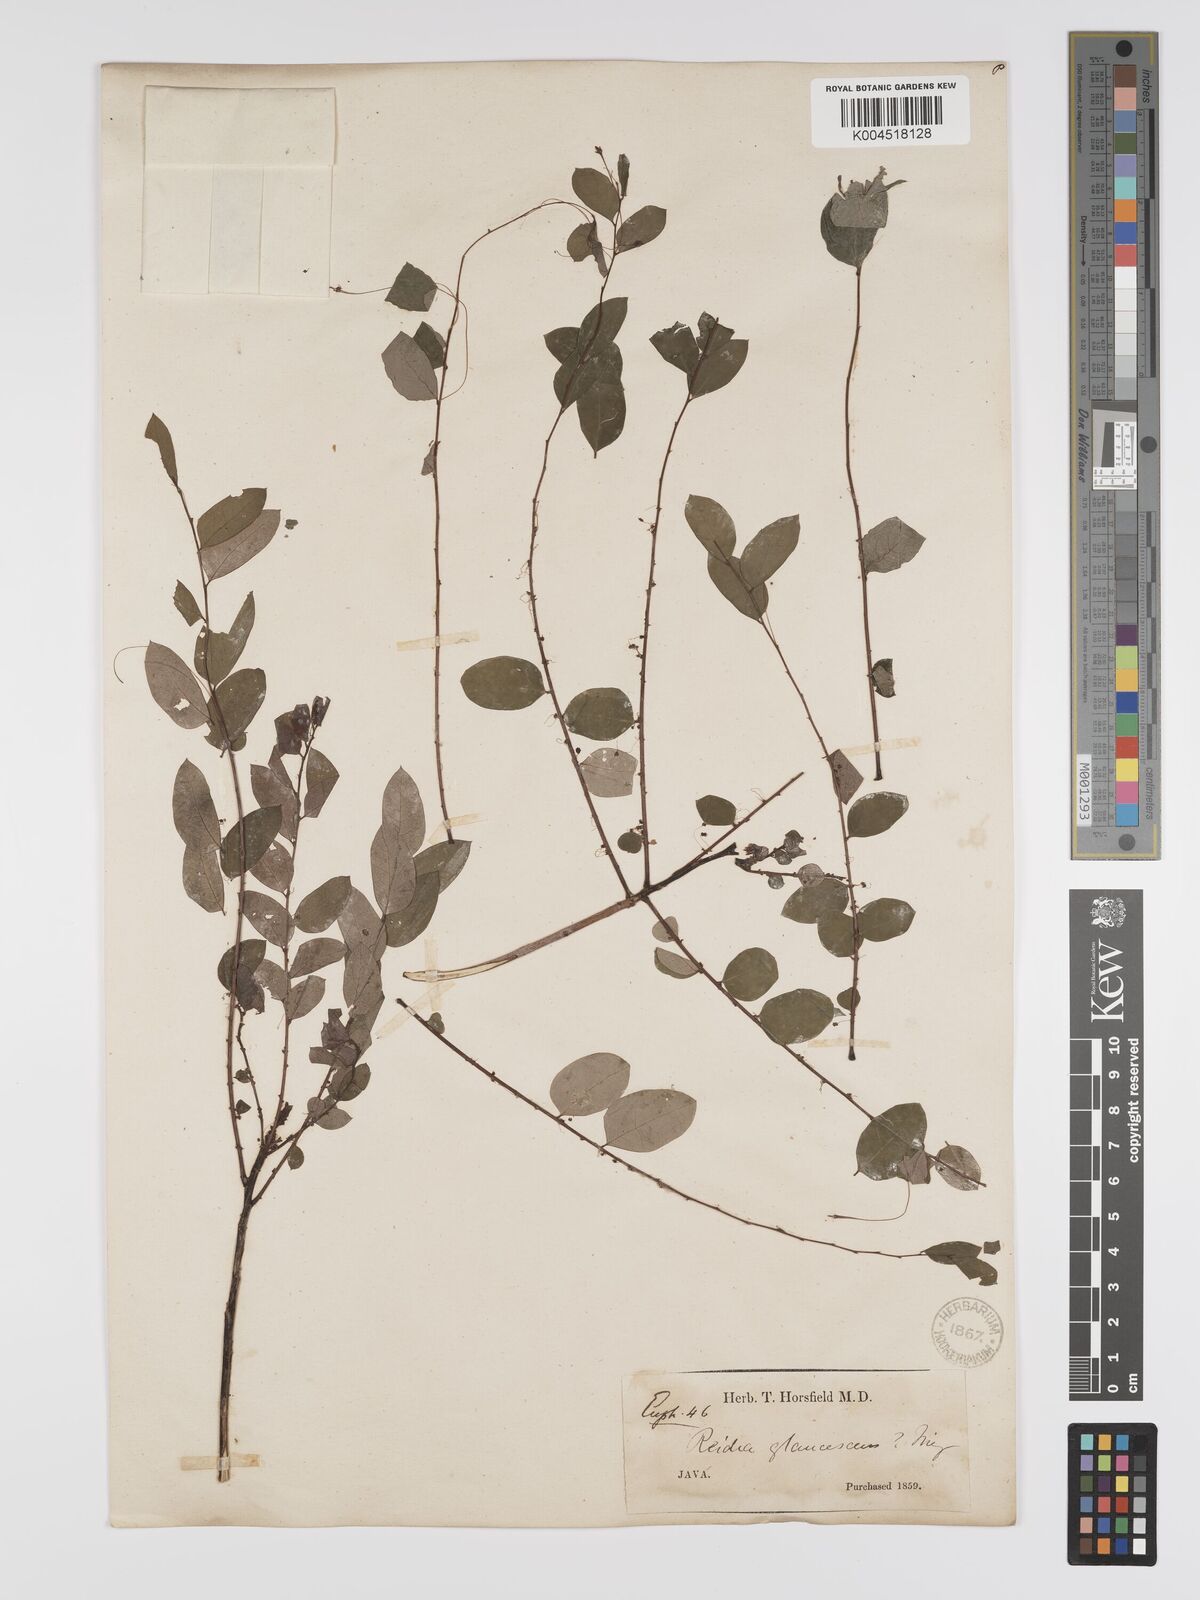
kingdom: Plantae
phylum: Tracheophyta
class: Magnoliopsida
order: Malpighiales
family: Phyllanthaceae
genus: Phyllanthus
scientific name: Phyllanthus
